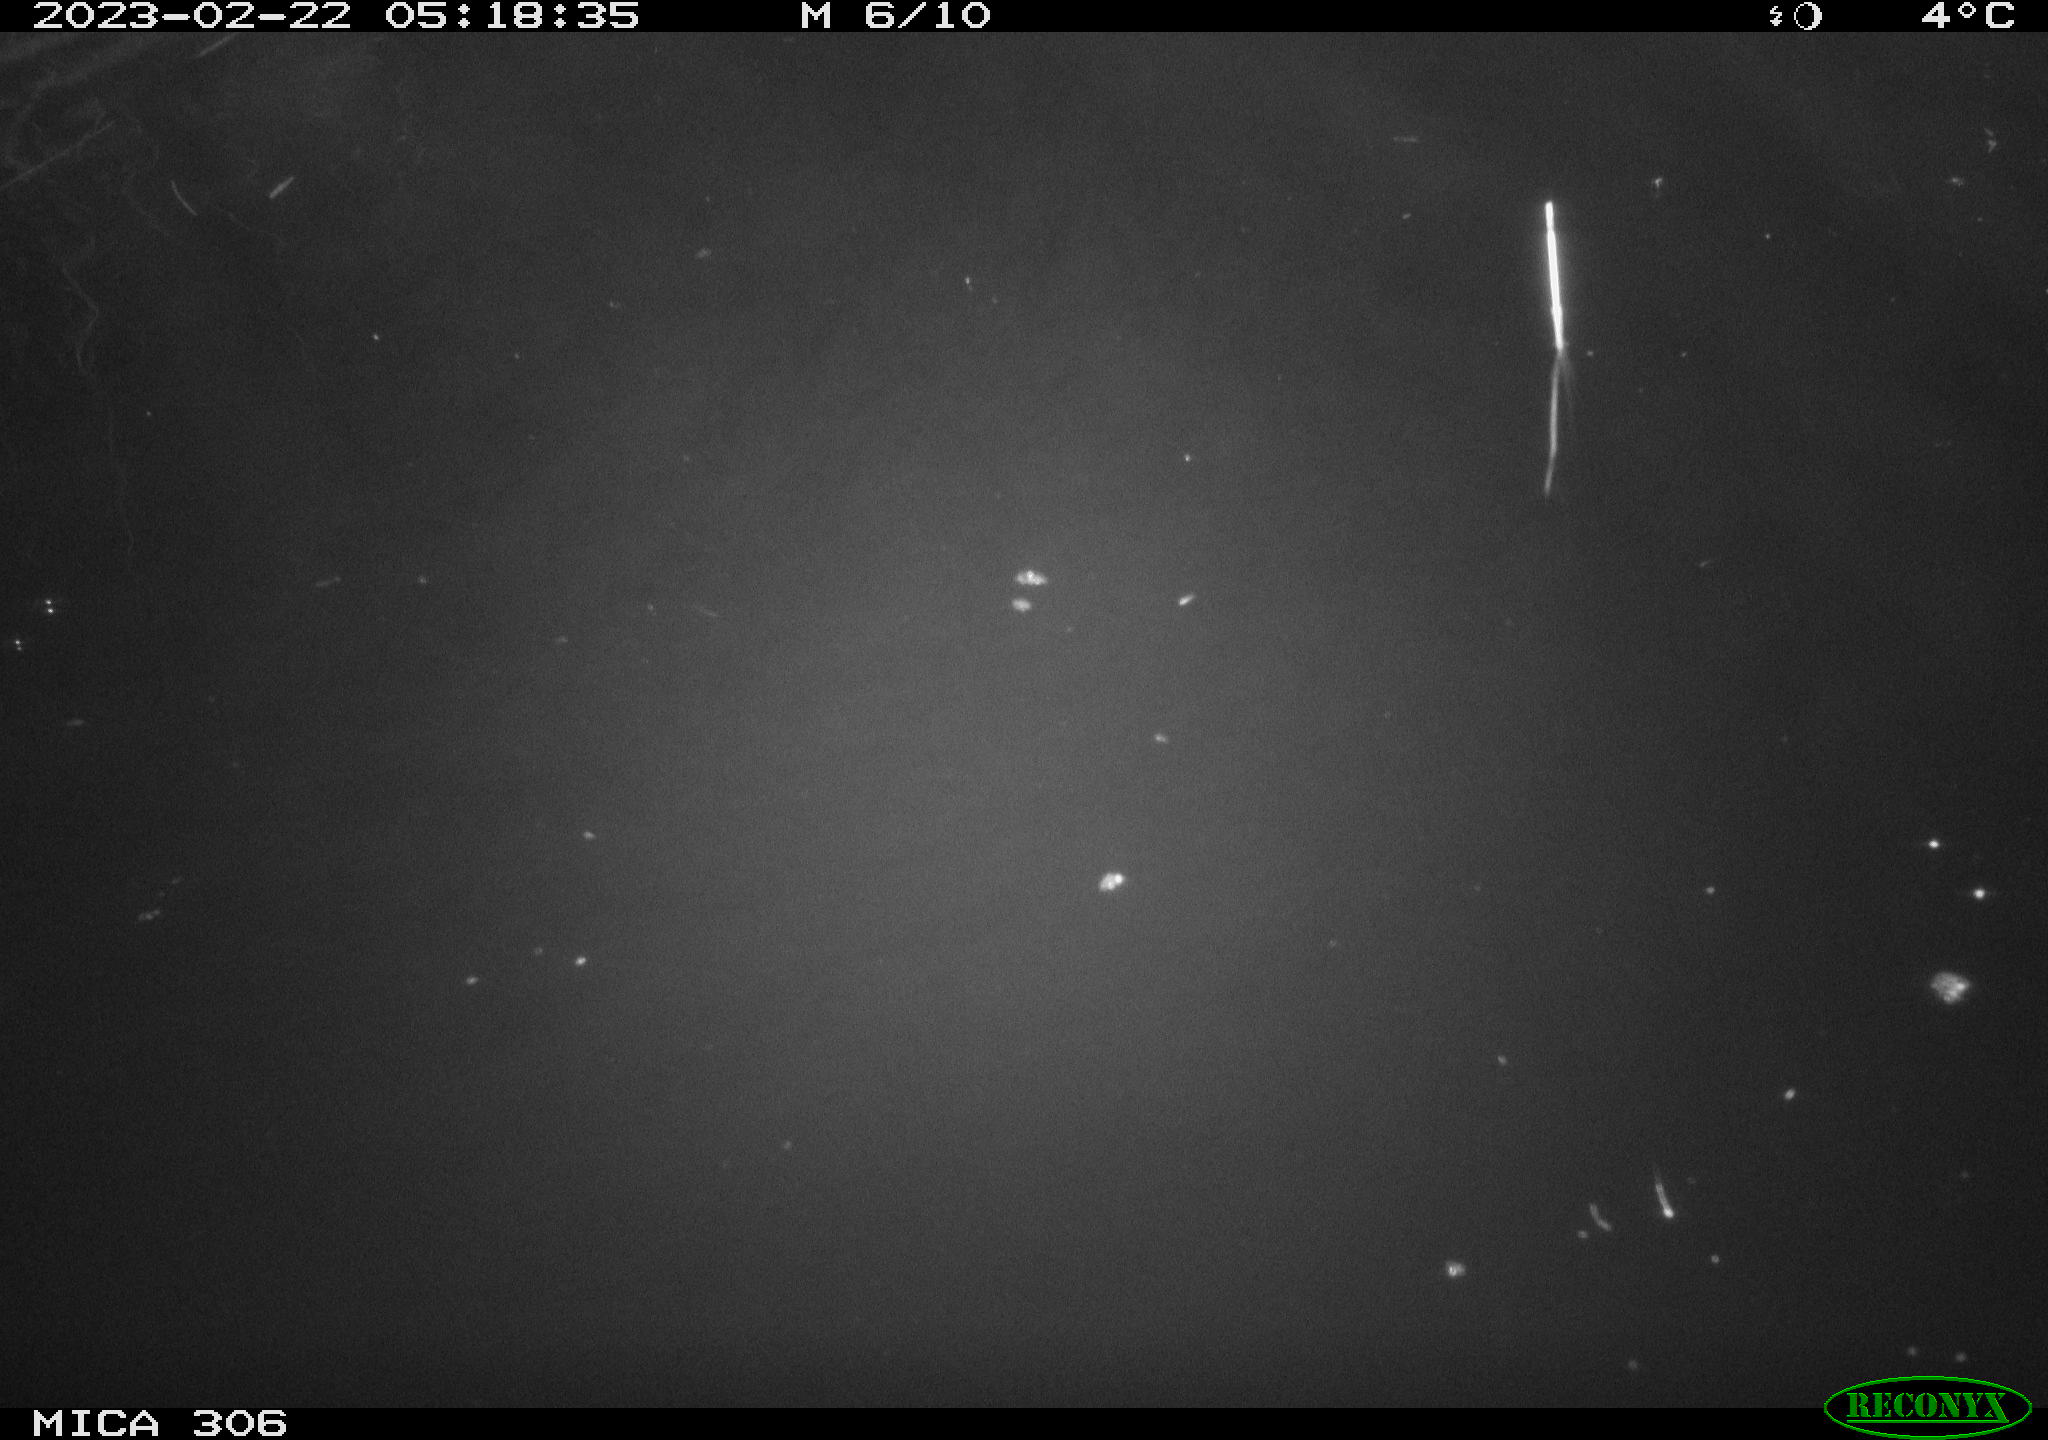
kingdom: Animalia
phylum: Chordata
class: Mammalia
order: Rodentia
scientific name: Rodentia
